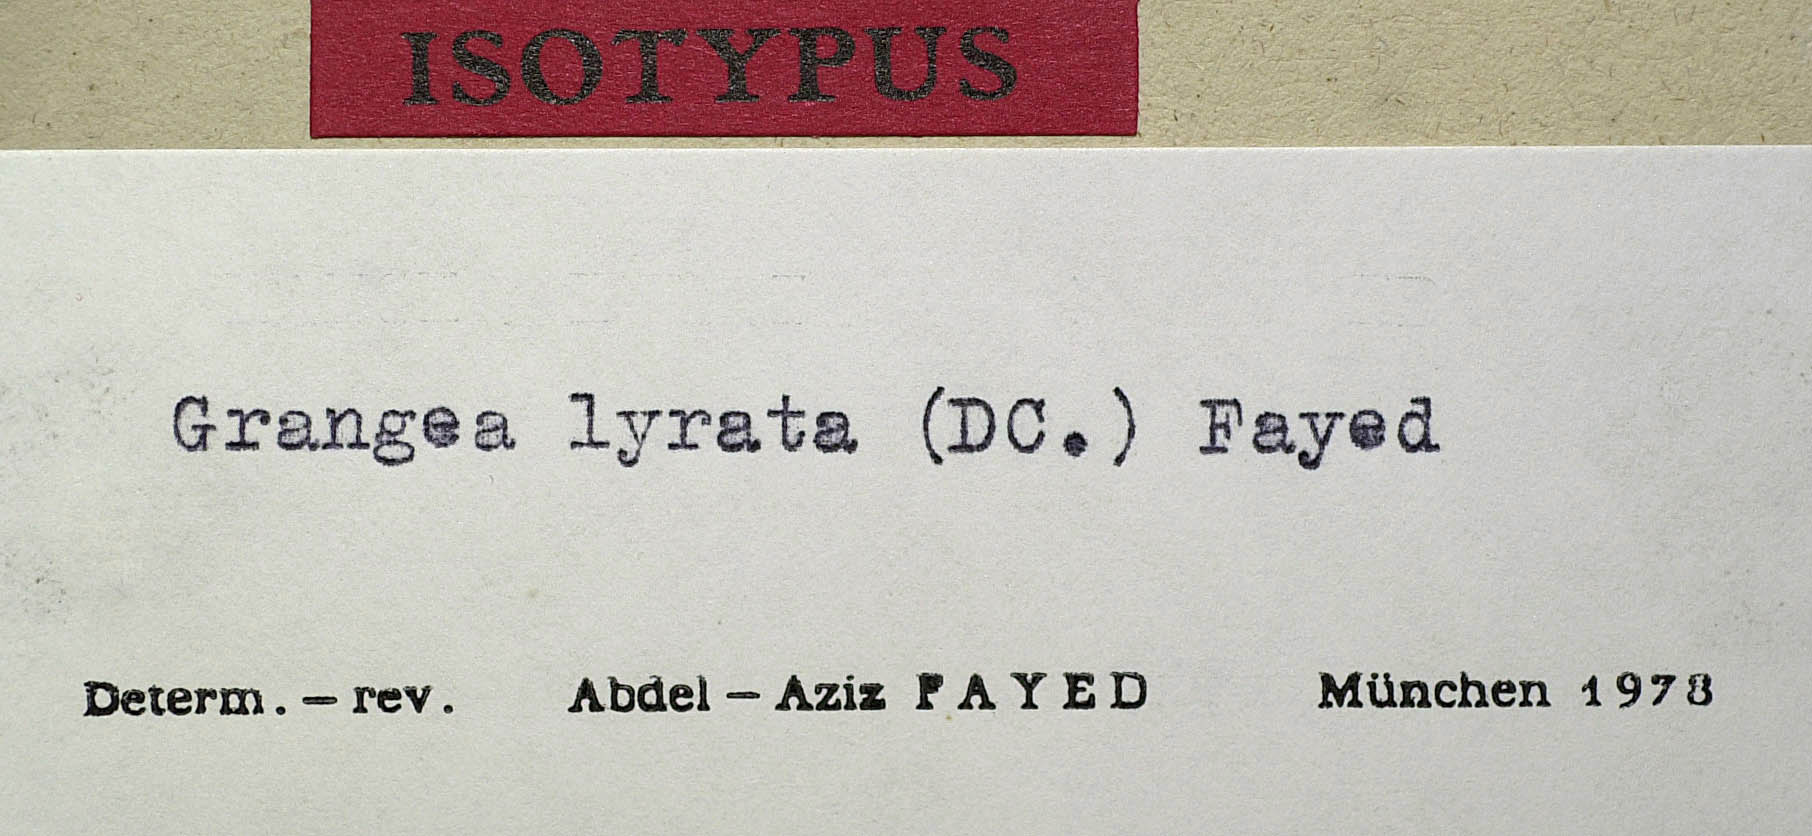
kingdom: Plantae
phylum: Tracheophyta
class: Magnoliopsida
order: Asterales
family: Asteraceae
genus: Grangea
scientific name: Grangea lyrata
